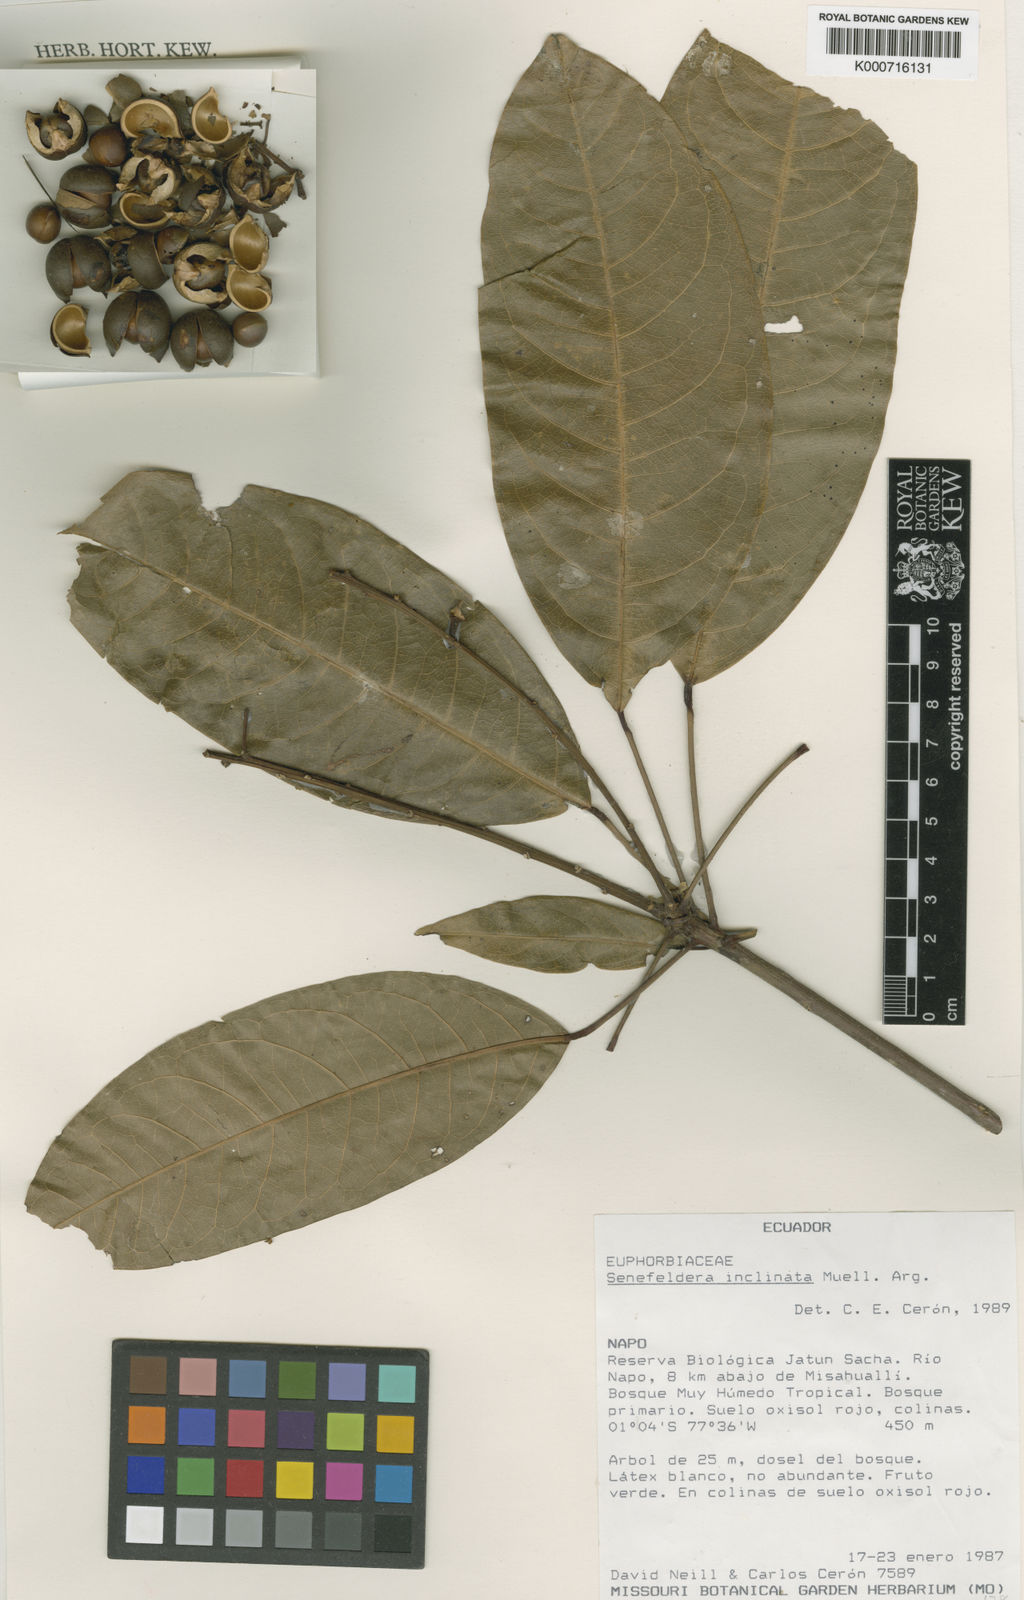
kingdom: Plantae
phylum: Tracheophyta
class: Magnoliopsida
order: Malpighiales
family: Euphorbiaceae
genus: Senefeldera
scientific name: Senefeldera
